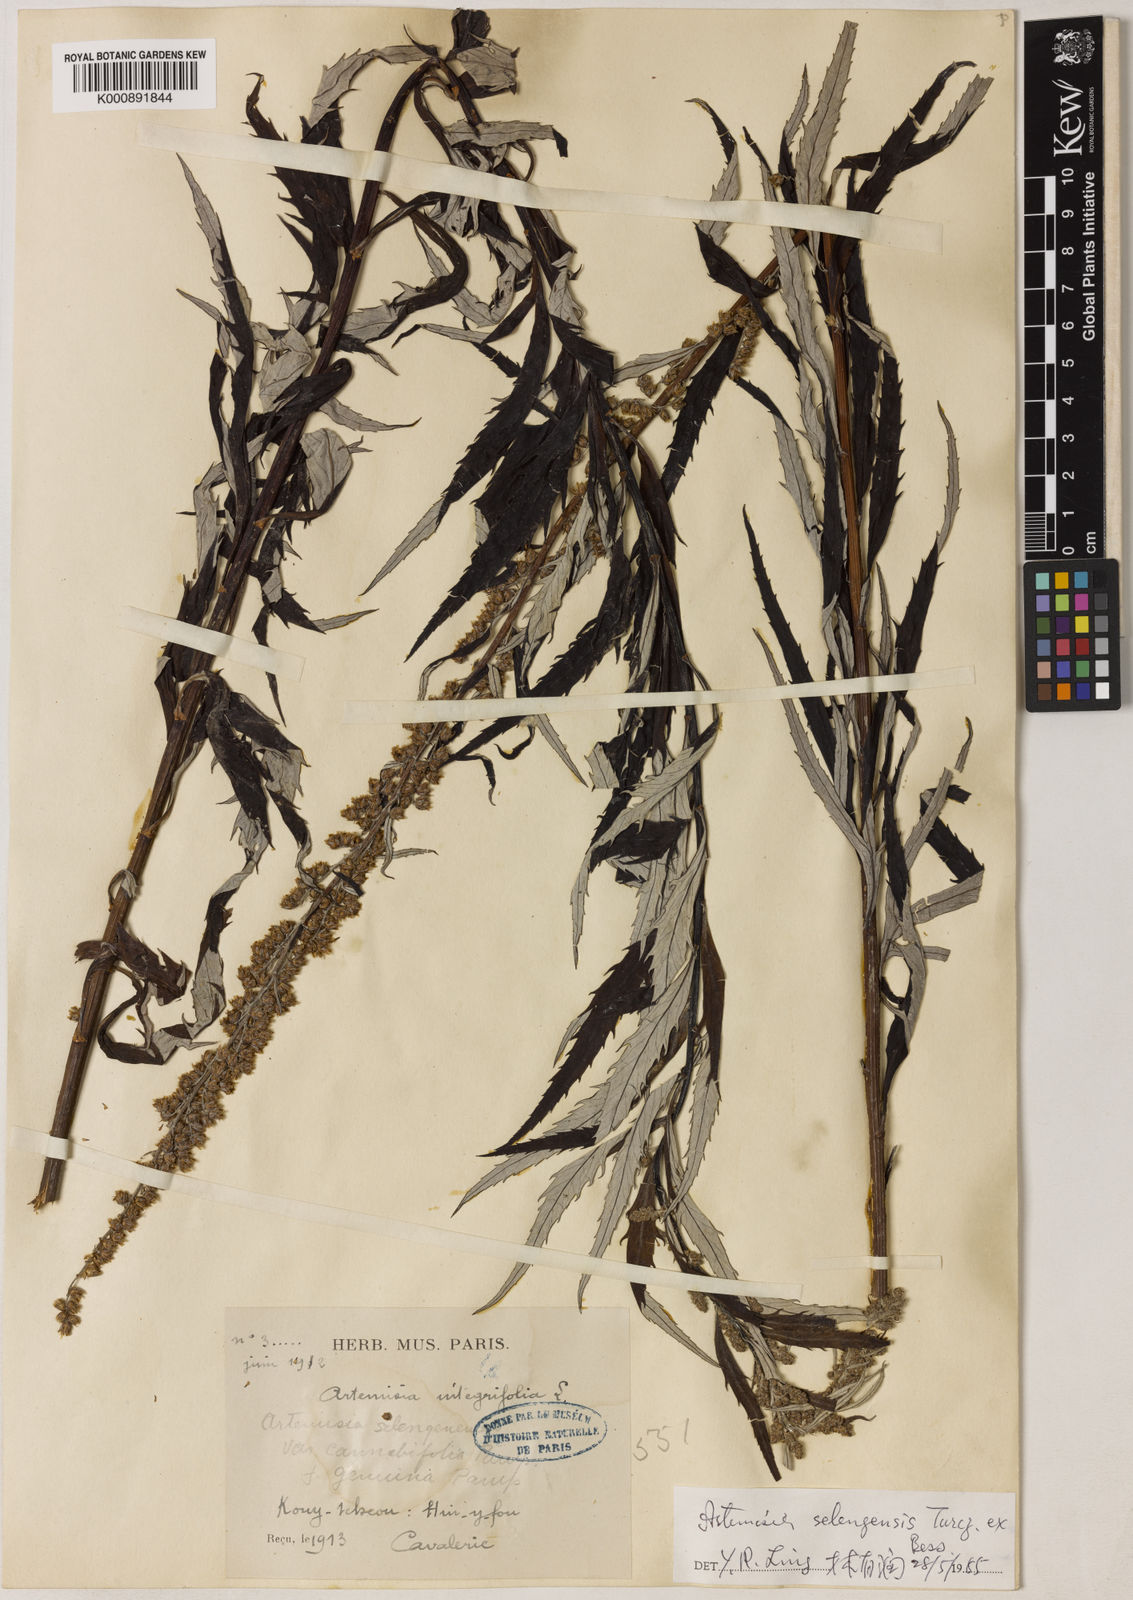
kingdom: Plantae
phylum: Tracheophyta
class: Magnoliopsida
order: Asterales
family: Asteraceae
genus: Artemisia
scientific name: Artemisia selengensis
